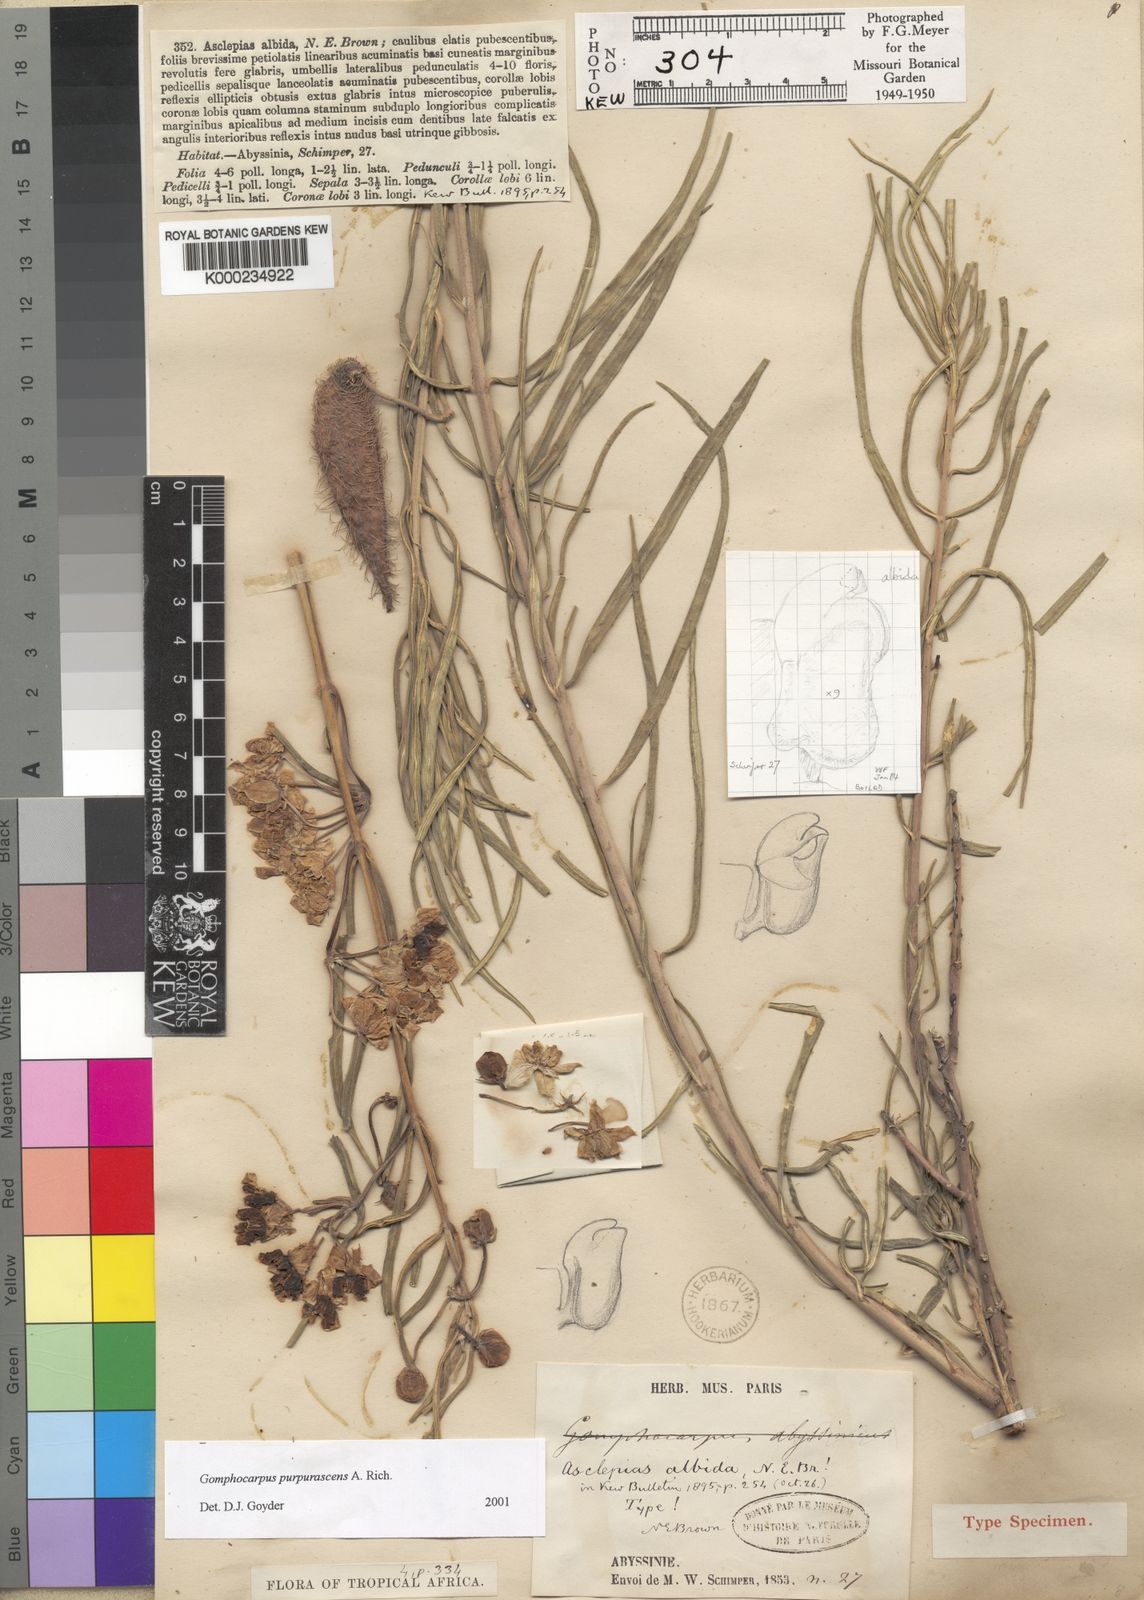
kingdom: Plantae
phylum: Tracheophyta
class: Magnoliopsida
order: Gentianales
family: Apocynaceae
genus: Gomphocarpus
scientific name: Gomphocarpus purpurascens
